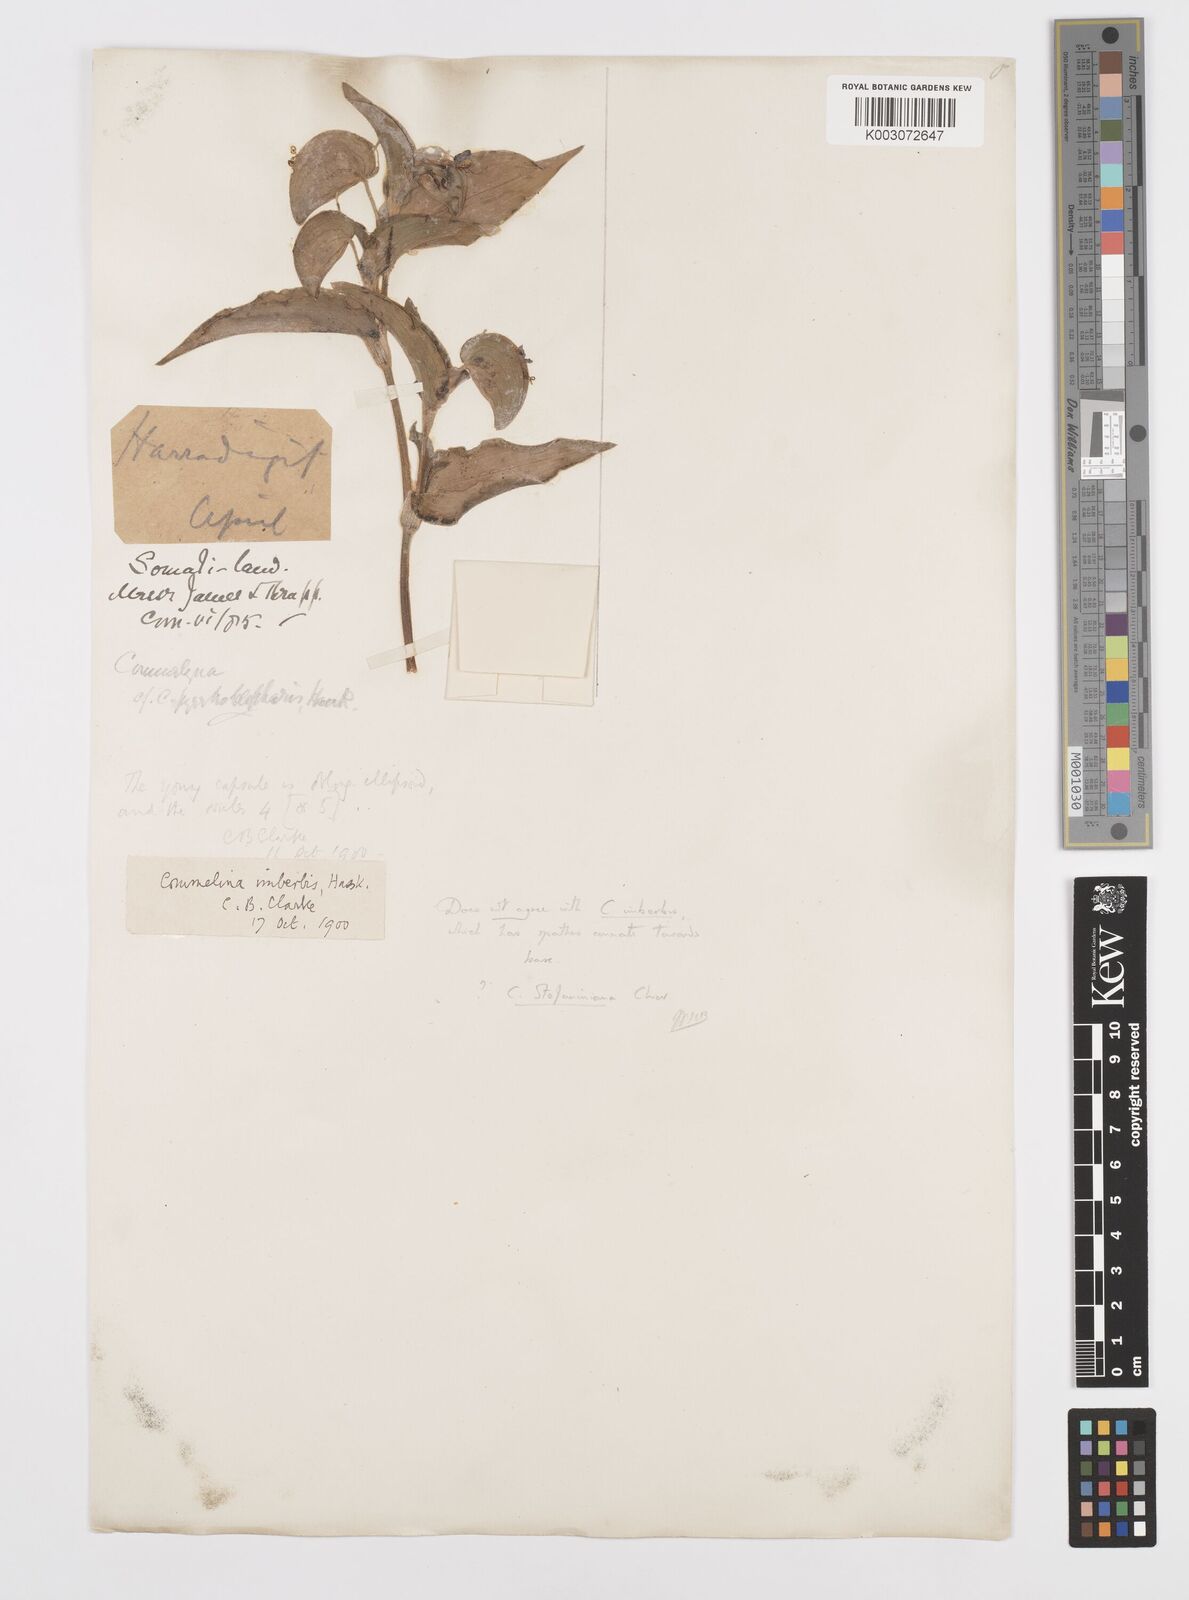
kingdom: Plantae
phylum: Tracheophyta
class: Liliopsida
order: Commelinales
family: Commelinaceae
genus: Commelina
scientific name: Commelina stefaniniana
